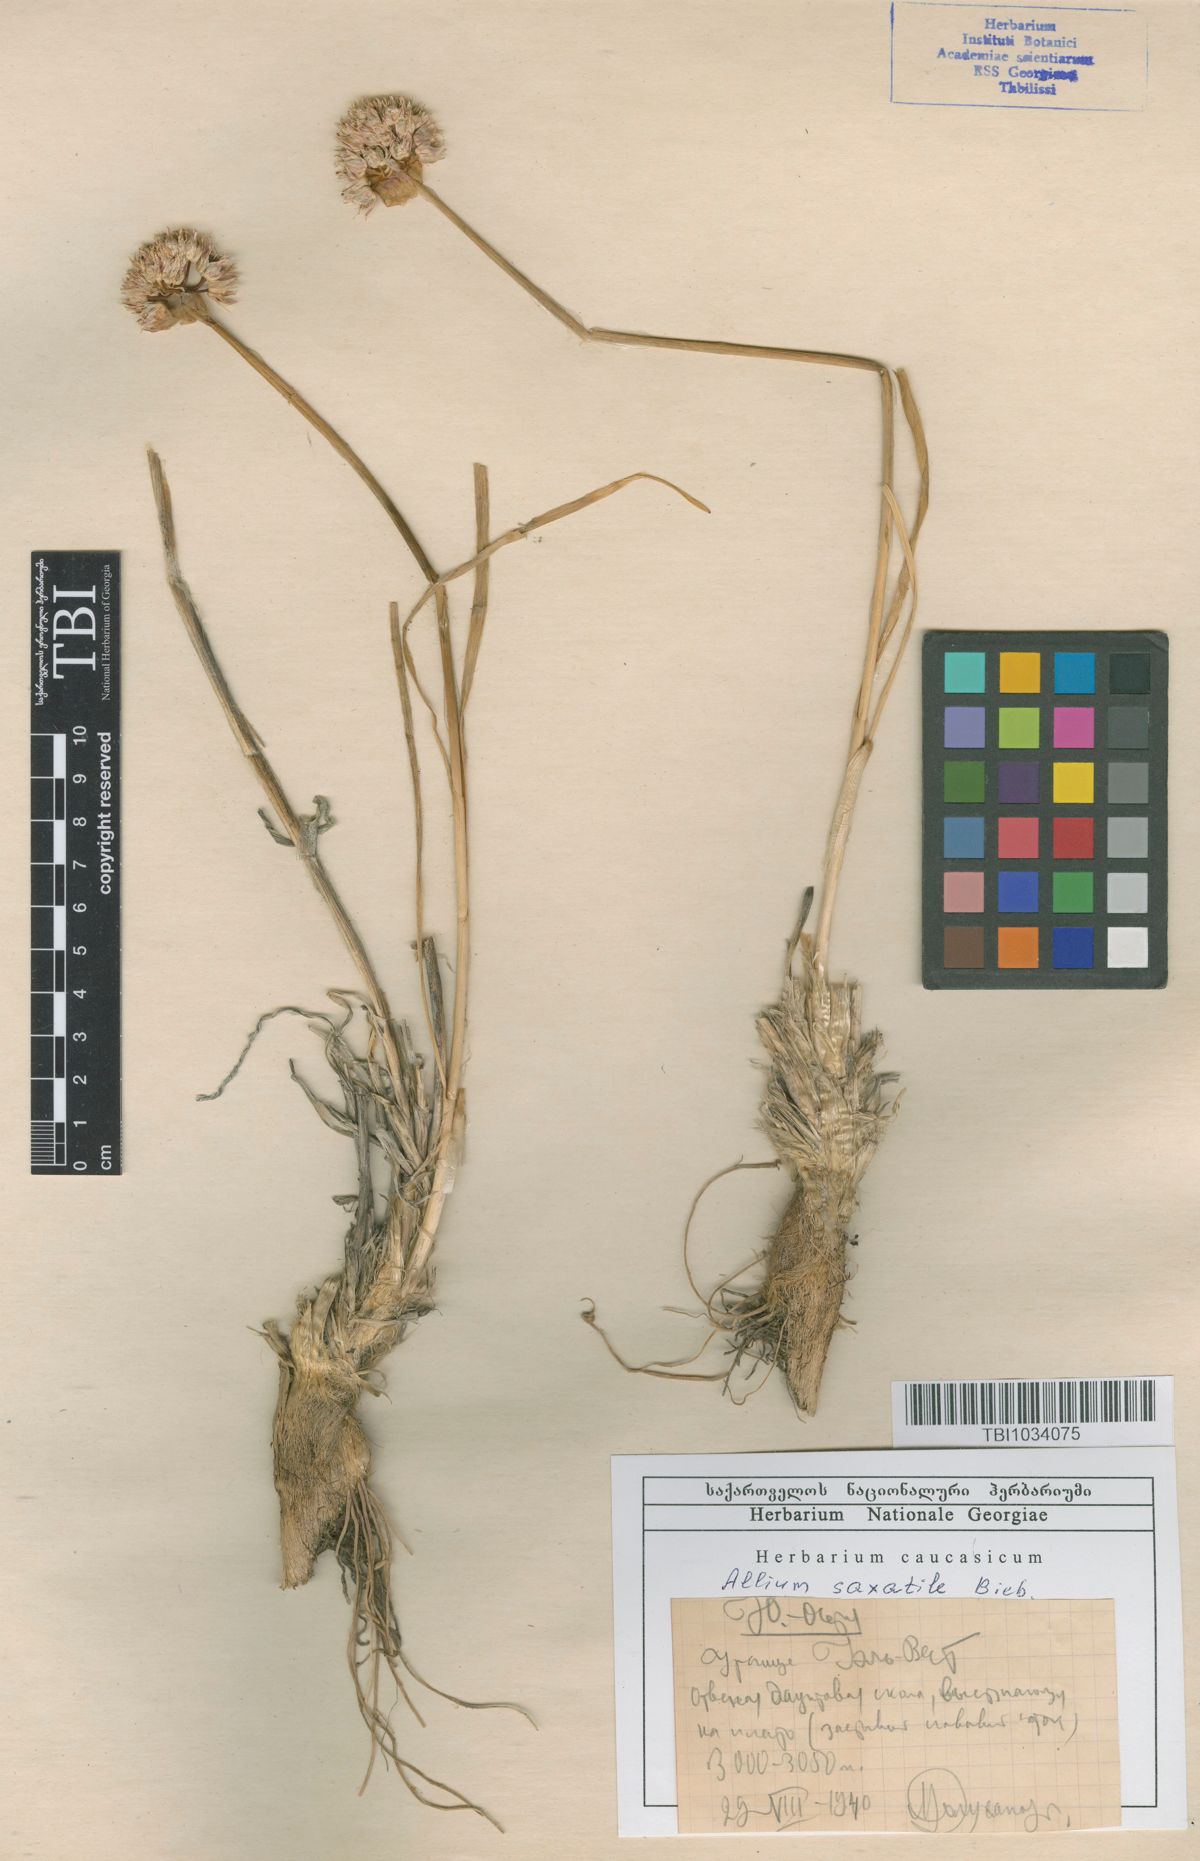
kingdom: Plantae
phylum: Tracheophyta
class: Liliopsida
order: Asparagales
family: Amaryllidaceae
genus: Allium
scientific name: Allium saxatile
